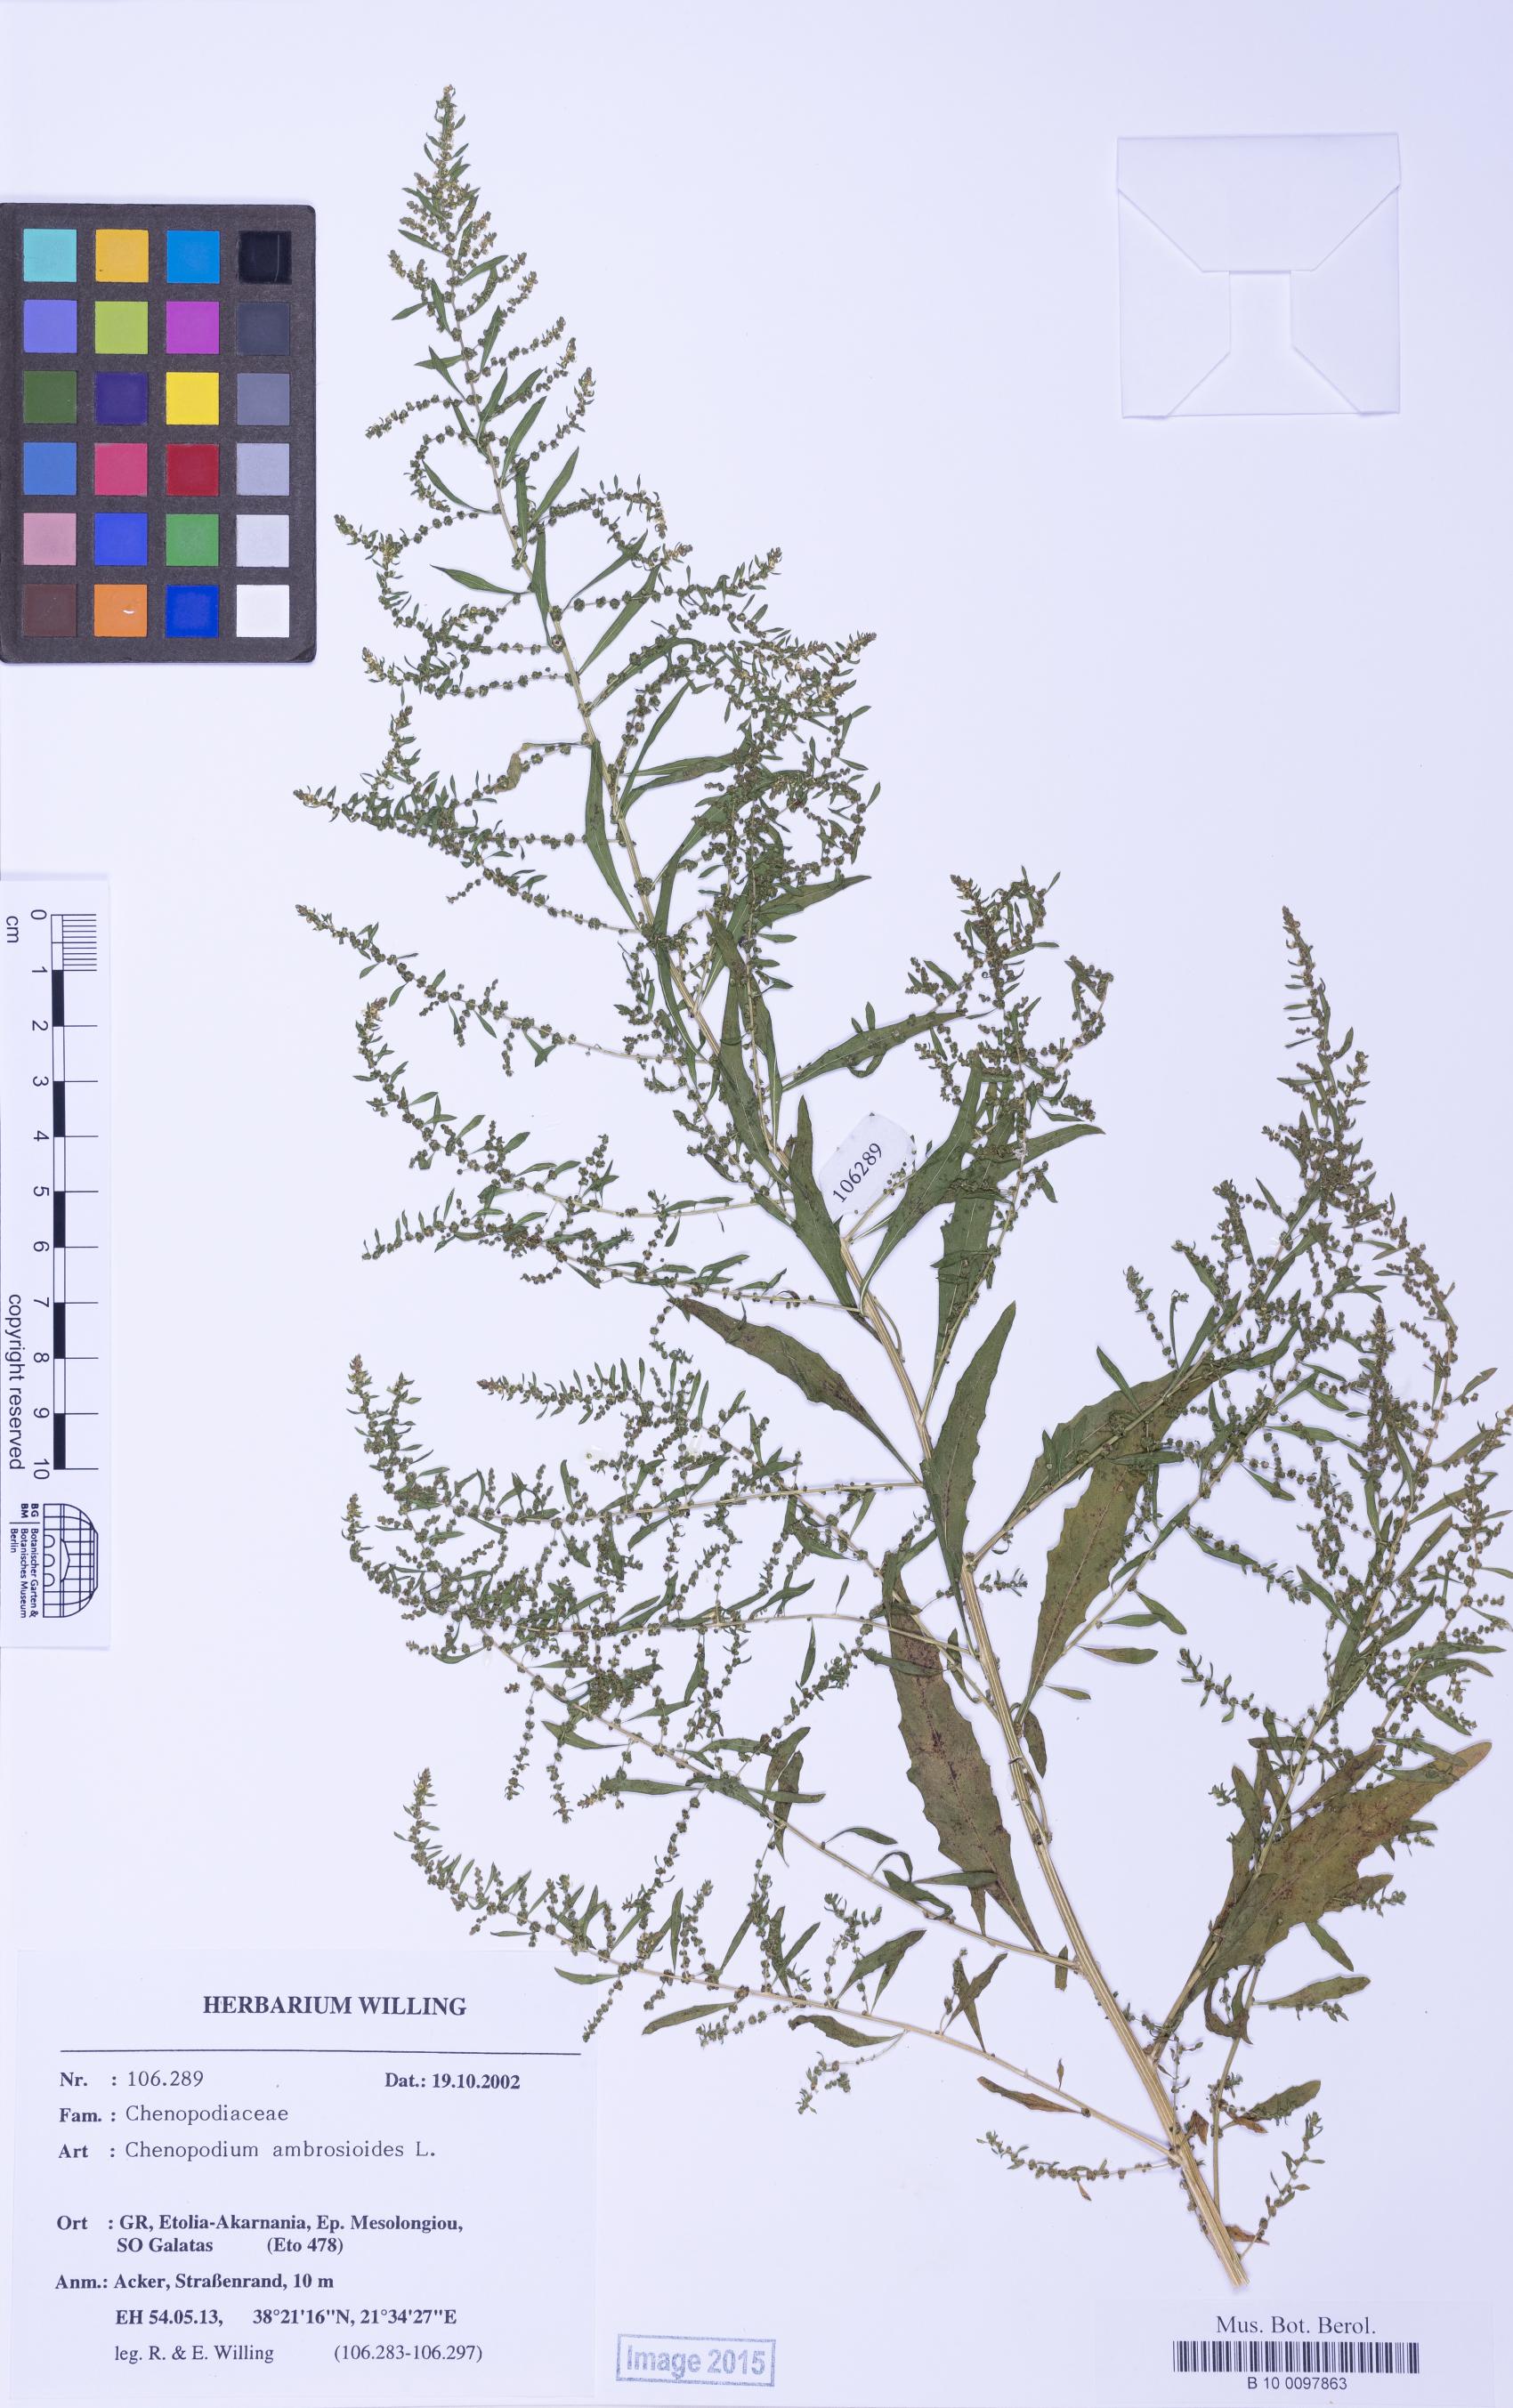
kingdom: Plantae
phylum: Tracheophyta
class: Magnoliopsida
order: Caryophyllales
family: Amaranthaceae
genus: Dysphania
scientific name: Dysphania ambrosioides
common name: Wormseed
